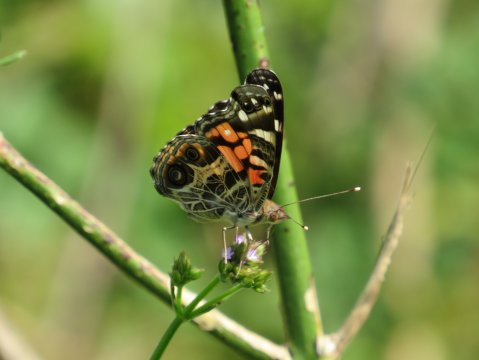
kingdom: Animalia
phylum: Arthropoda
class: Insecta
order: Lepidoptera
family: Nymphalidae
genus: Vanessa
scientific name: Vanessa virginiensis
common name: American Lady
